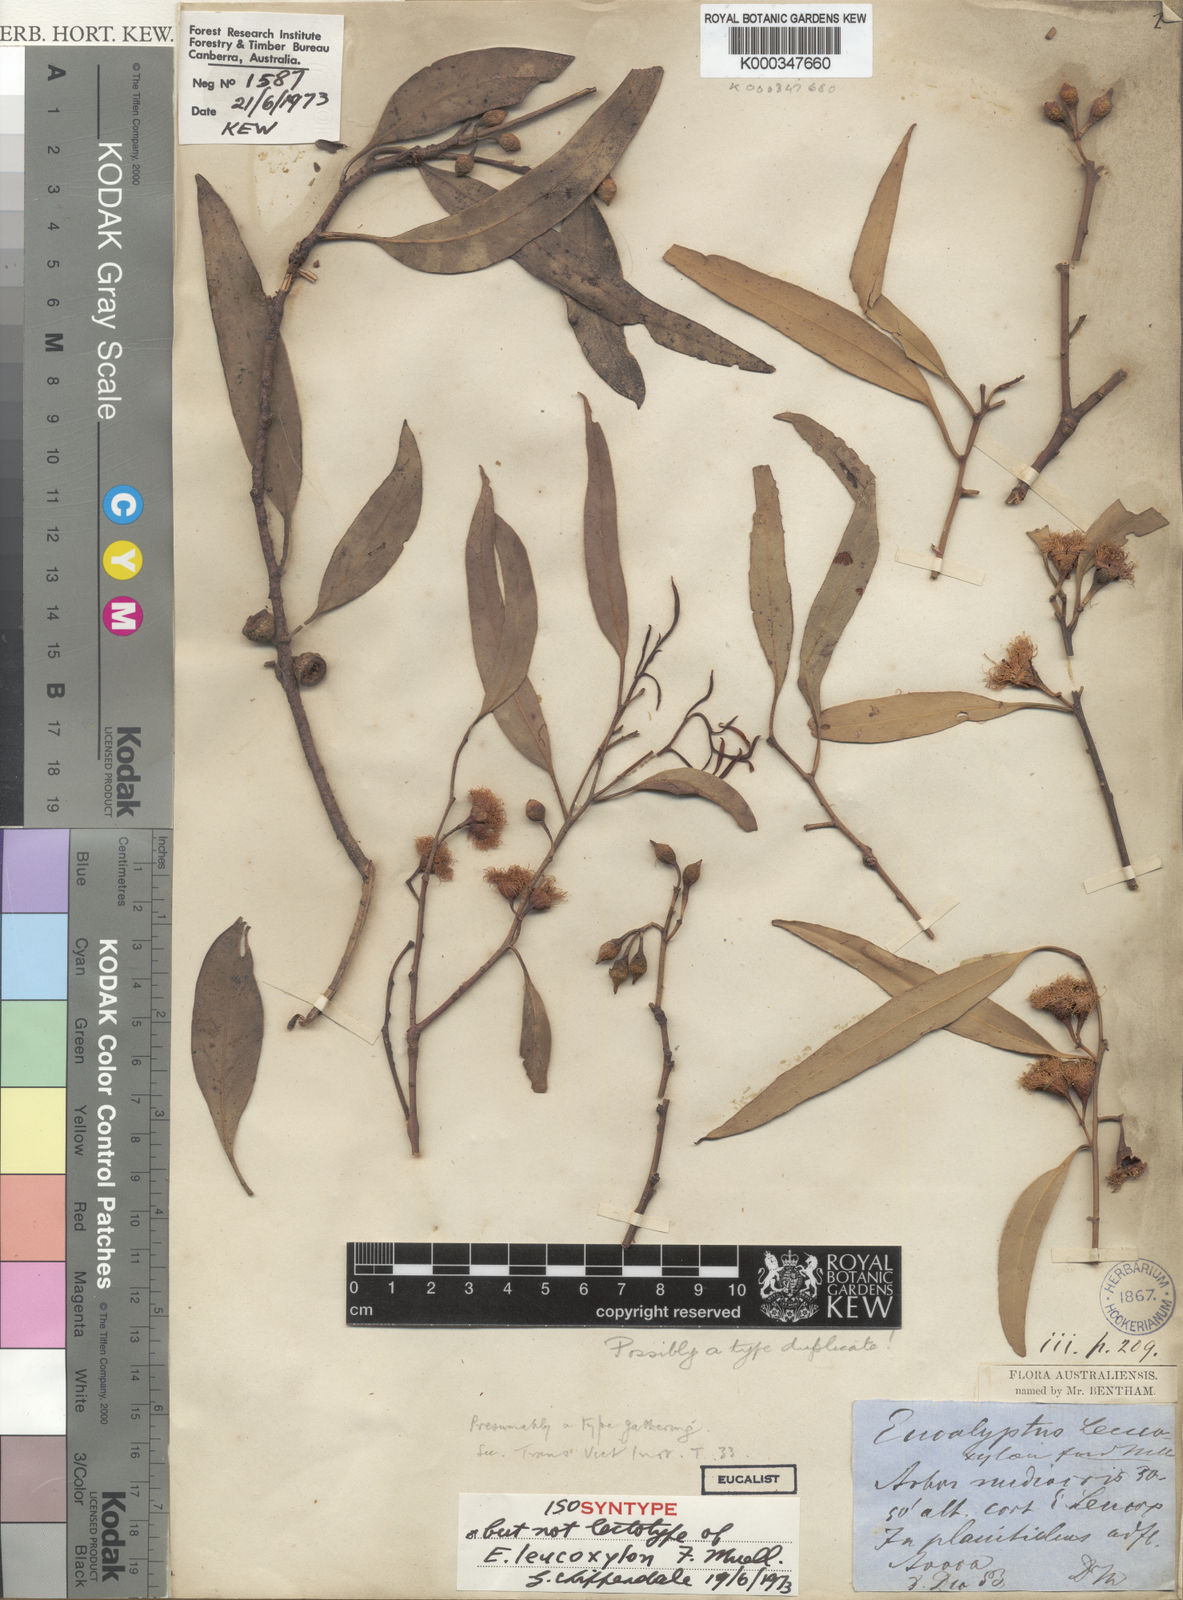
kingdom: Plantae
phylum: Tracheophyta
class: Magnoliopsida
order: Myrtales
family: Myrtaceae
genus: Eucalyptus
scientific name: Eucalyptus leucoxylon
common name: Blue gum
